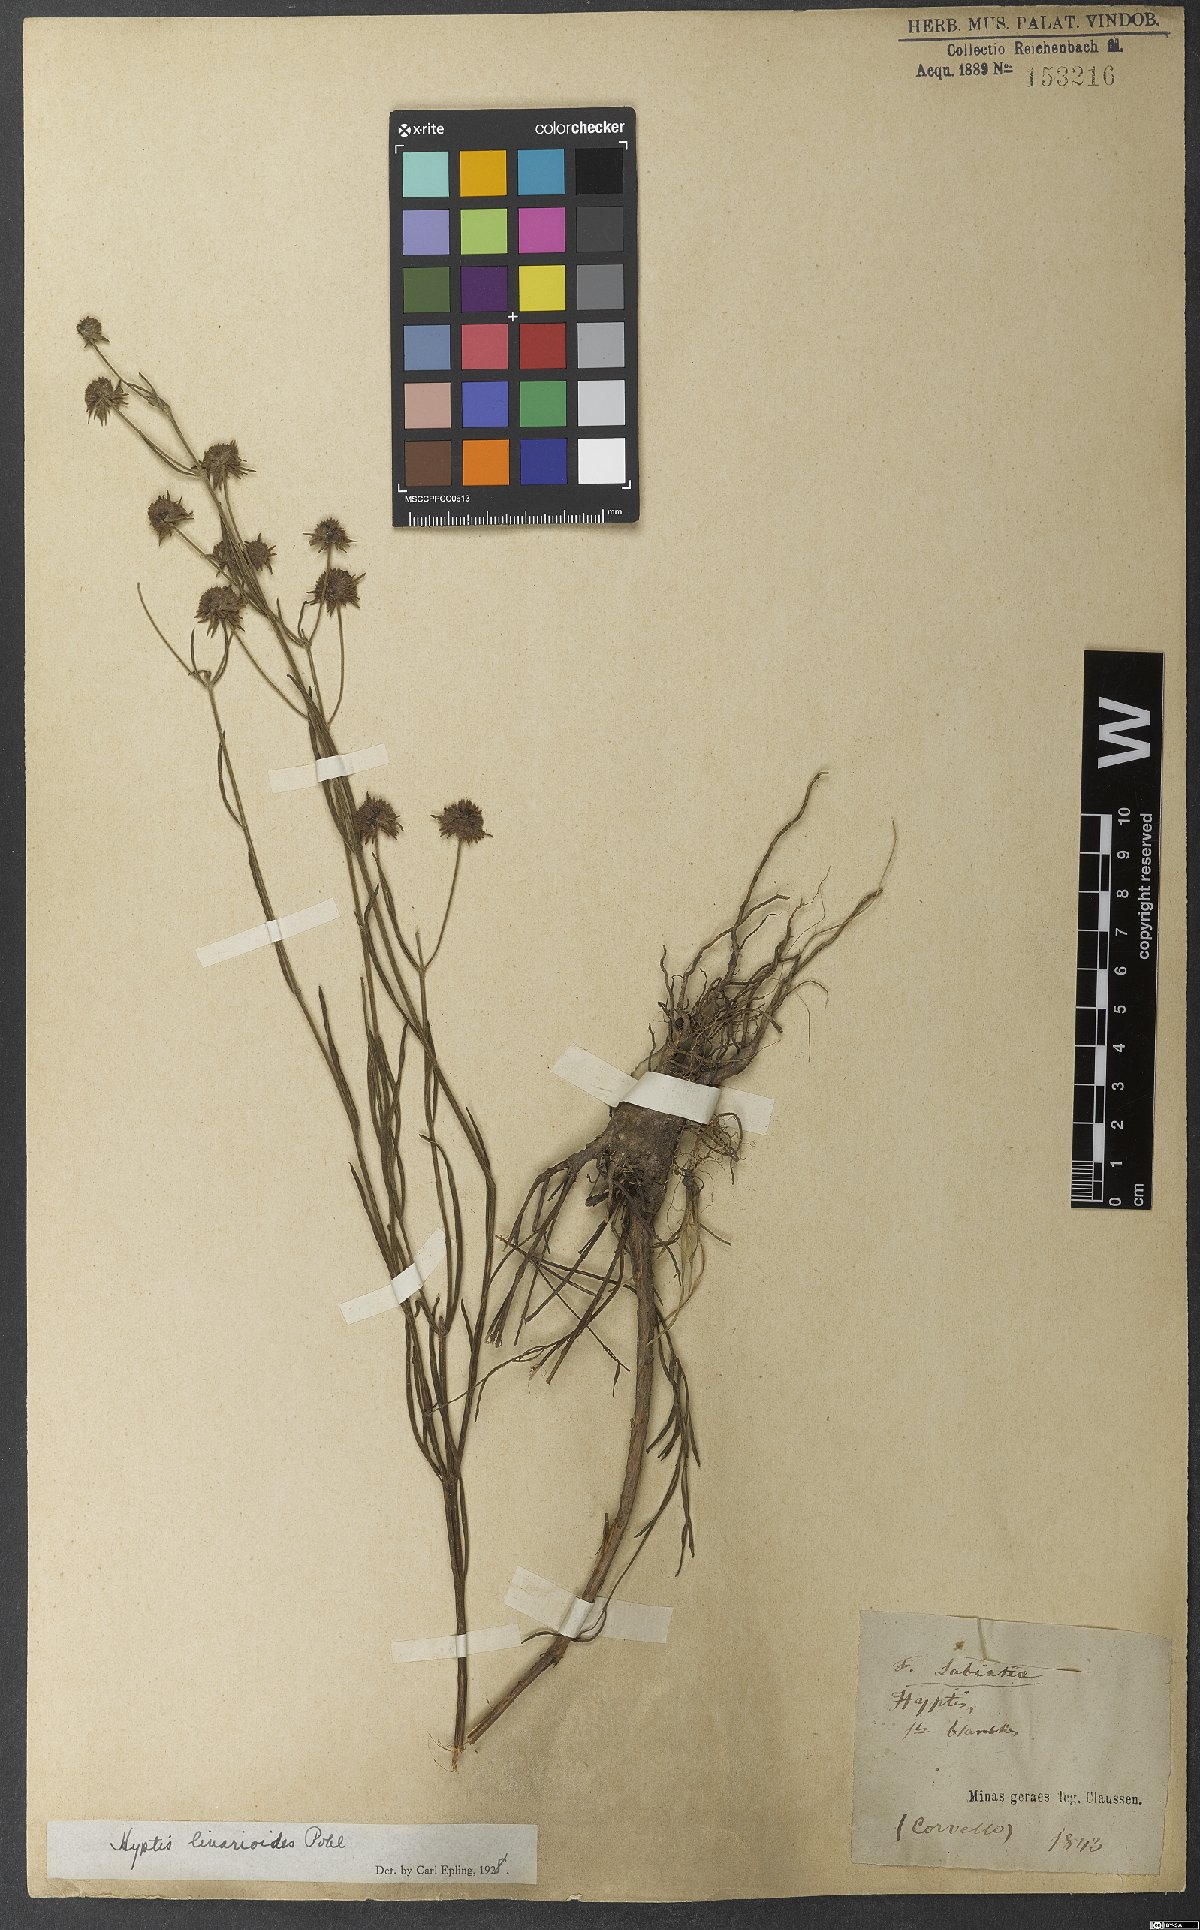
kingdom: Plantae
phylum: Tracheophyta
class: Magnoliopsida
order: Lamiales
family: Lamiaceae
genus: Hyptis
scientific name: Hyptis linarioides
